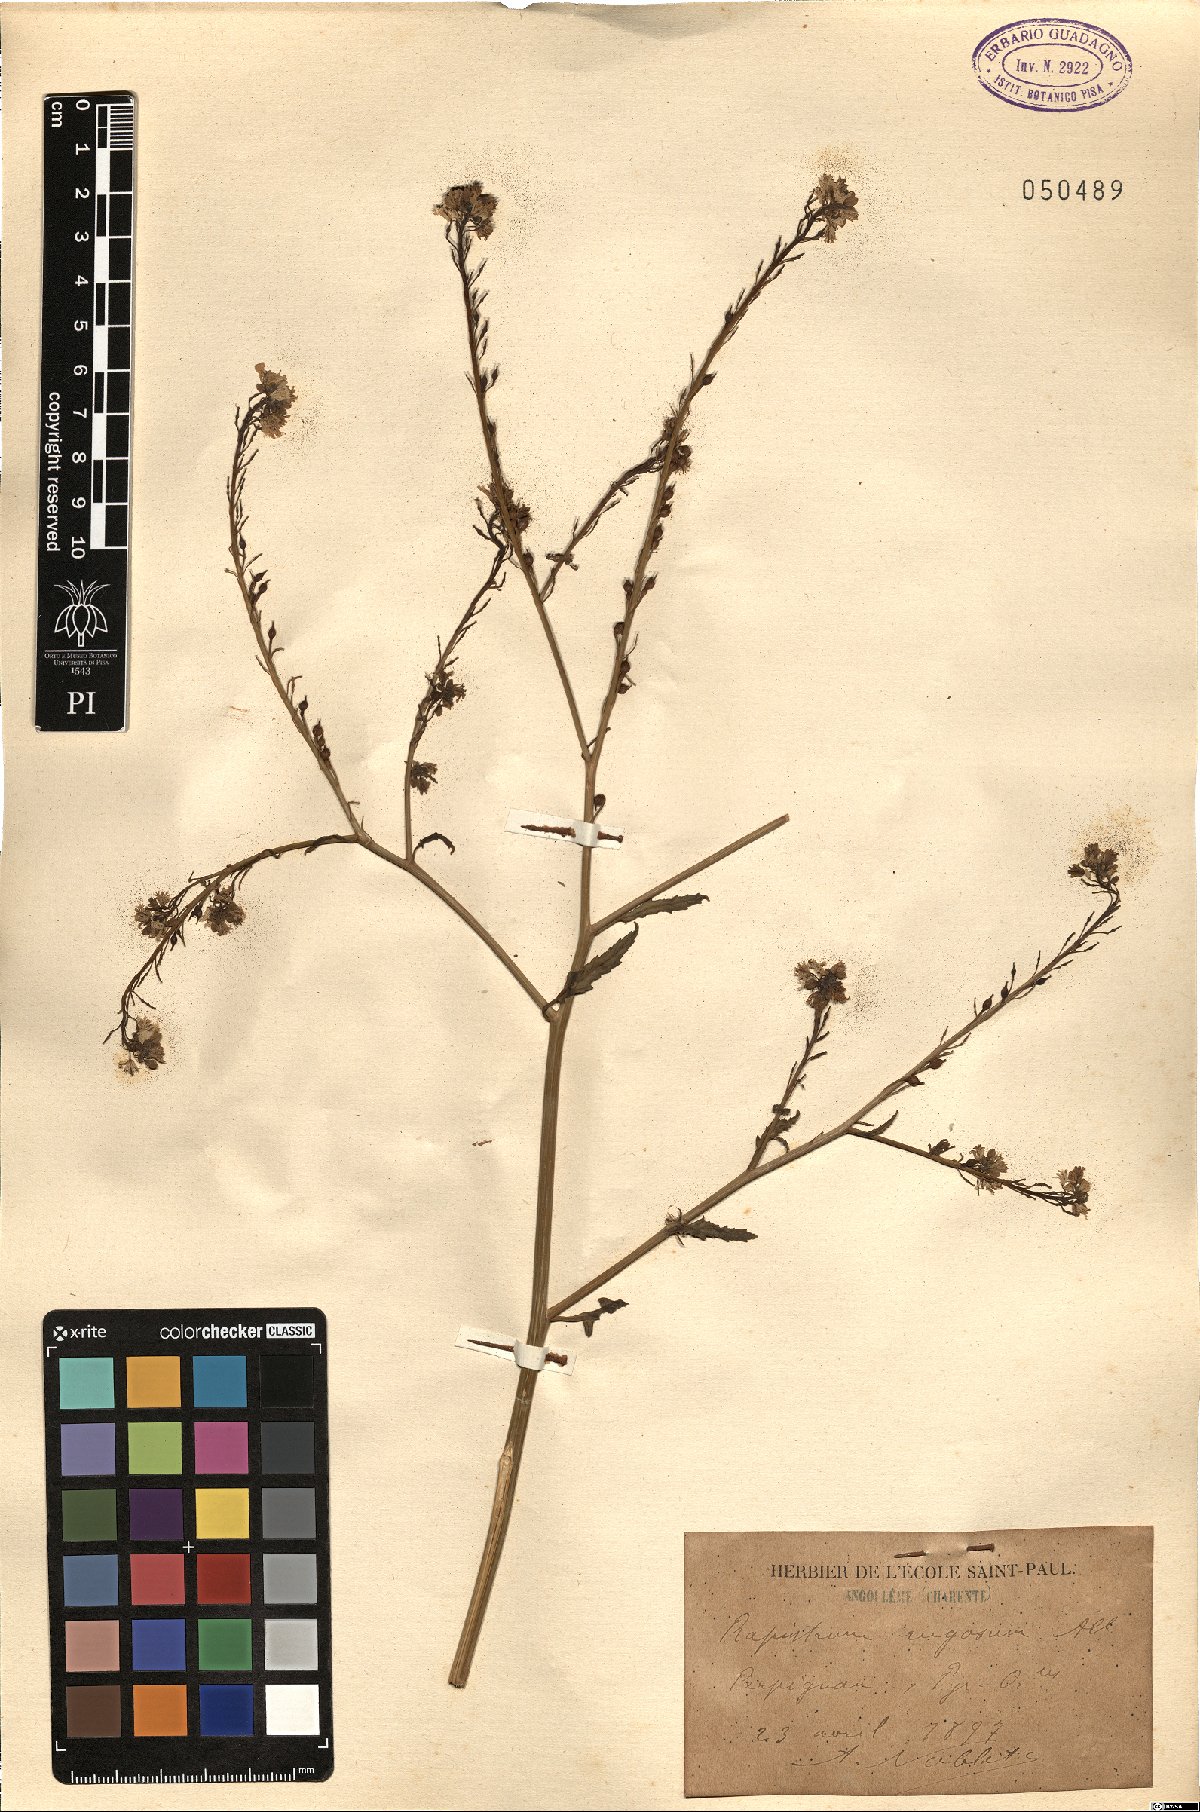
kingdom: Plantae
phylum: Tracheophyta
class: Magnoliopsida
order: Brassicales
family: Brassicaceae
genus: Rapistrum
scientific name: Rapistrum rugosum
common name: Annual bastardcabbage
